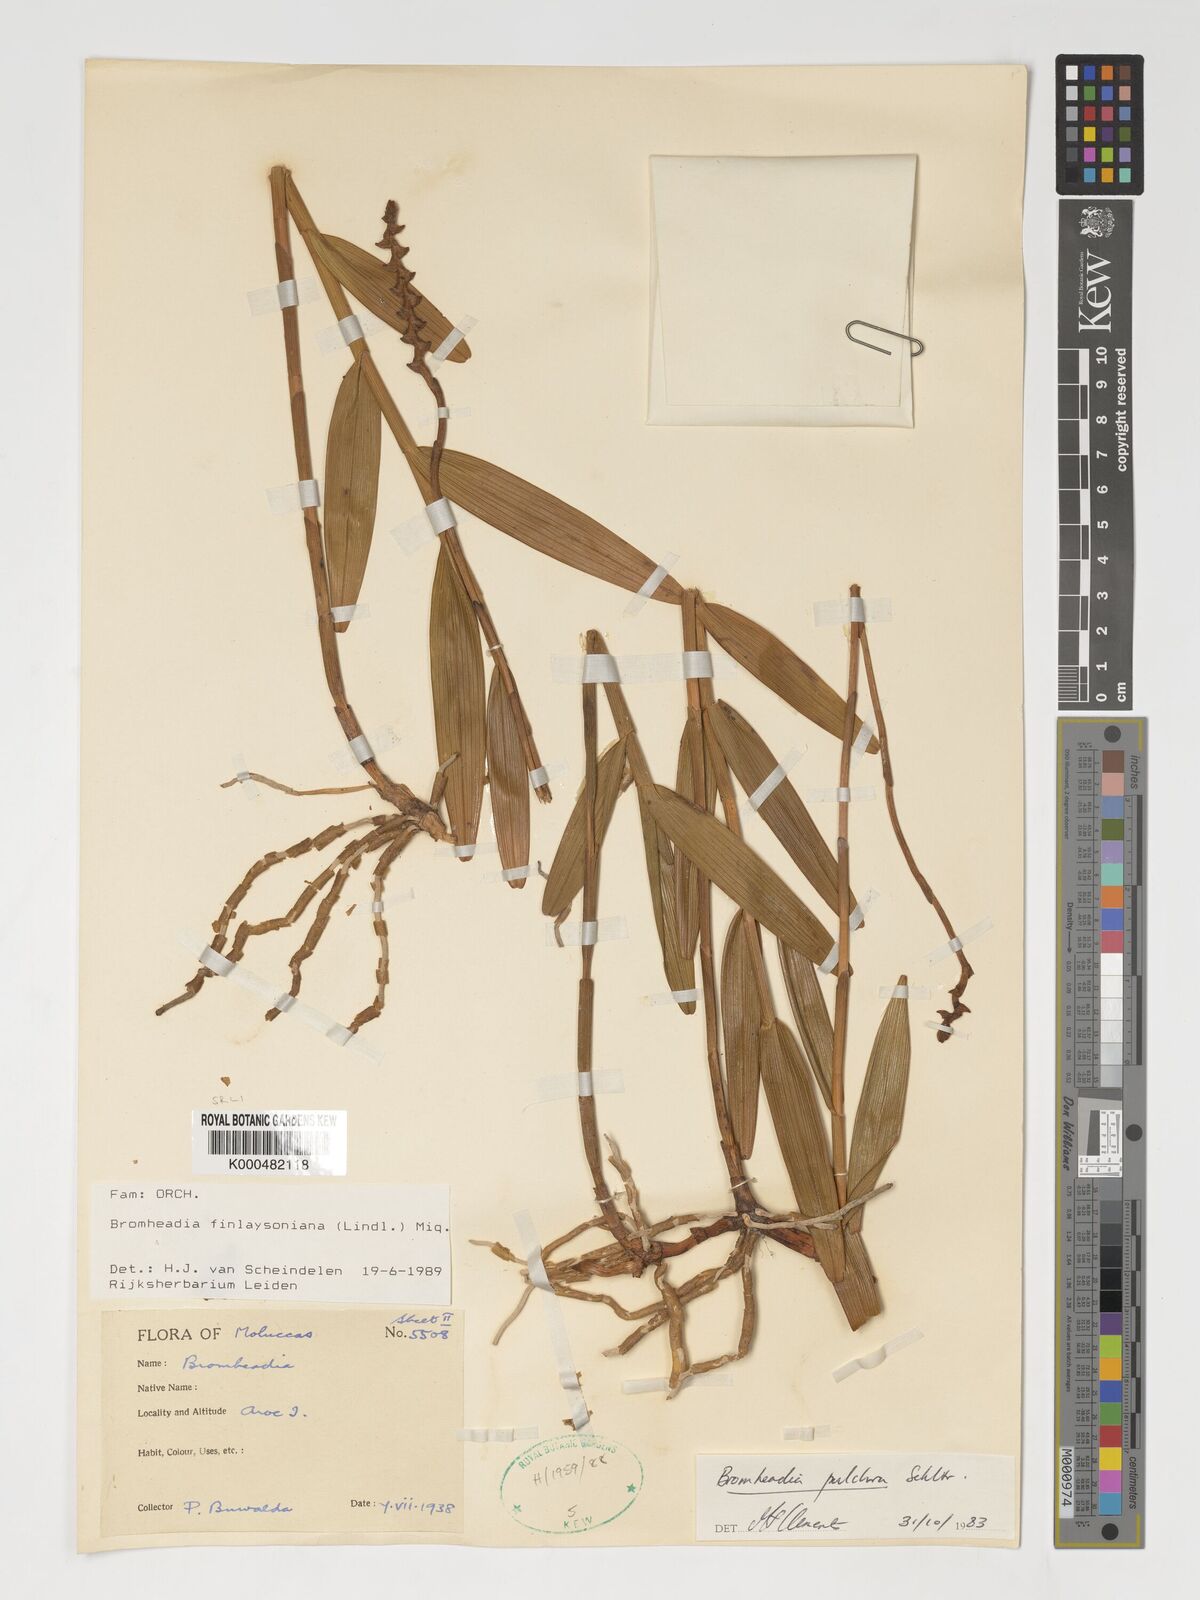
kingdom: Plantae
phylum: Tracheophyta
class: Liliopsida
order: Asparagales
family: Orchidaceae
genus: Bromheadia
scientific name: Bromheadia finlaysoniana
